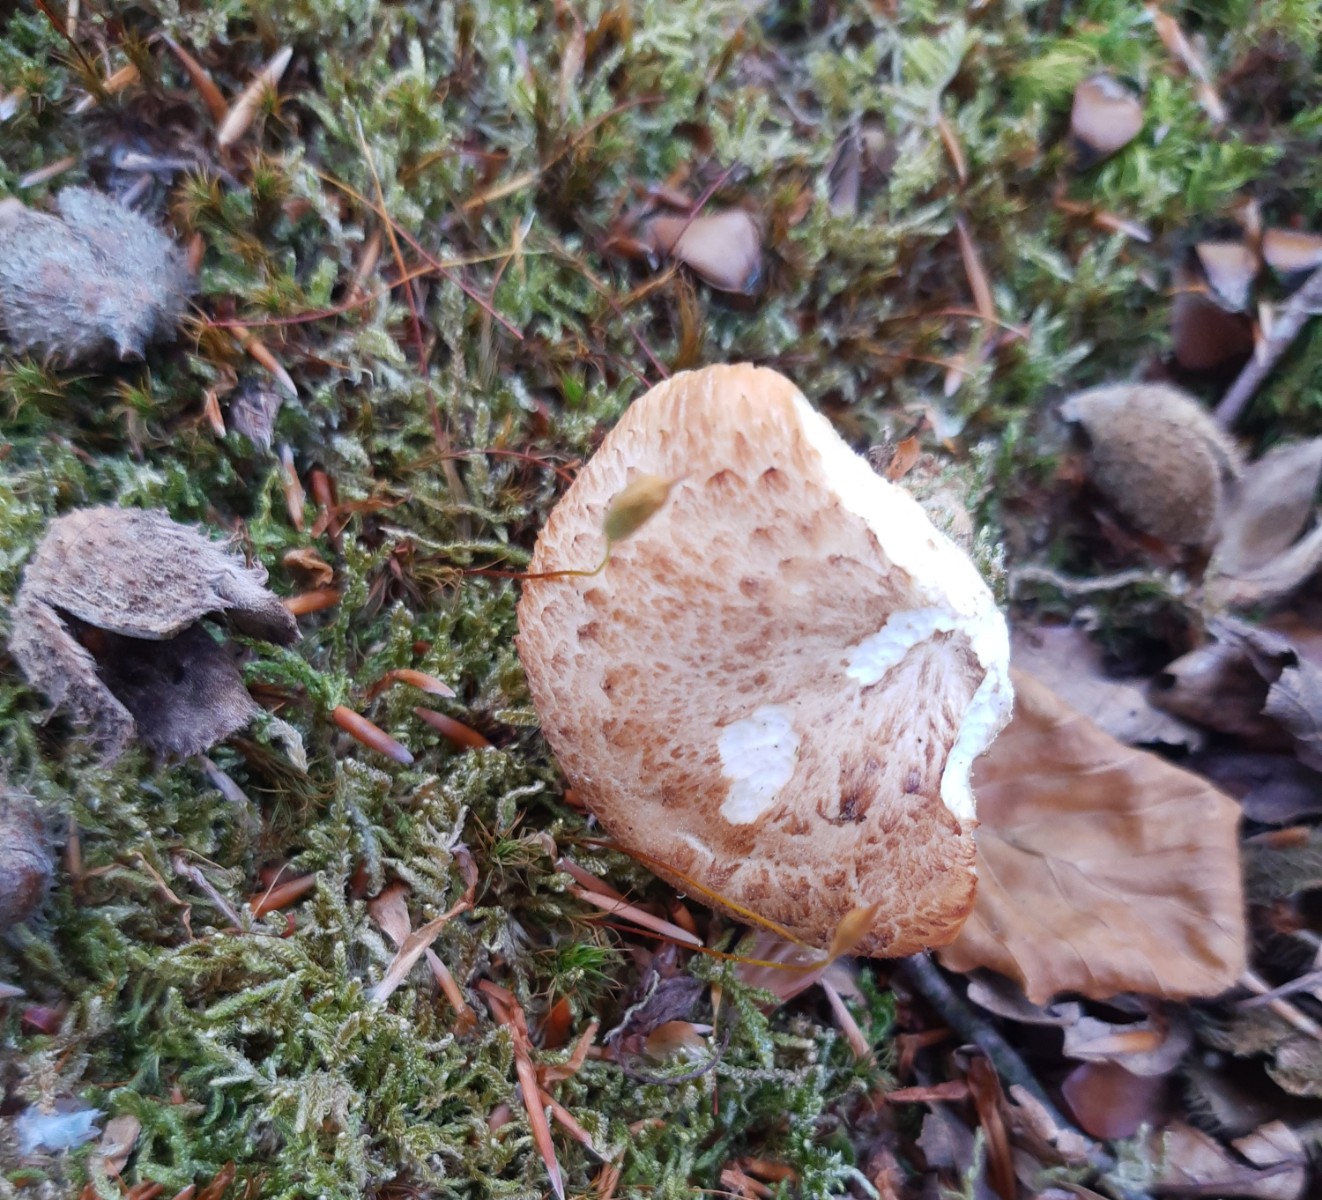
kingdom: Fungi
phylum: Basidiomycota
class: Agaricomycetes
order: Polyporales
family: Polyporaceae
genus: Polyporus
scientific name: Polyporus tuberaster
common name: knoldet stilkporesvamp
